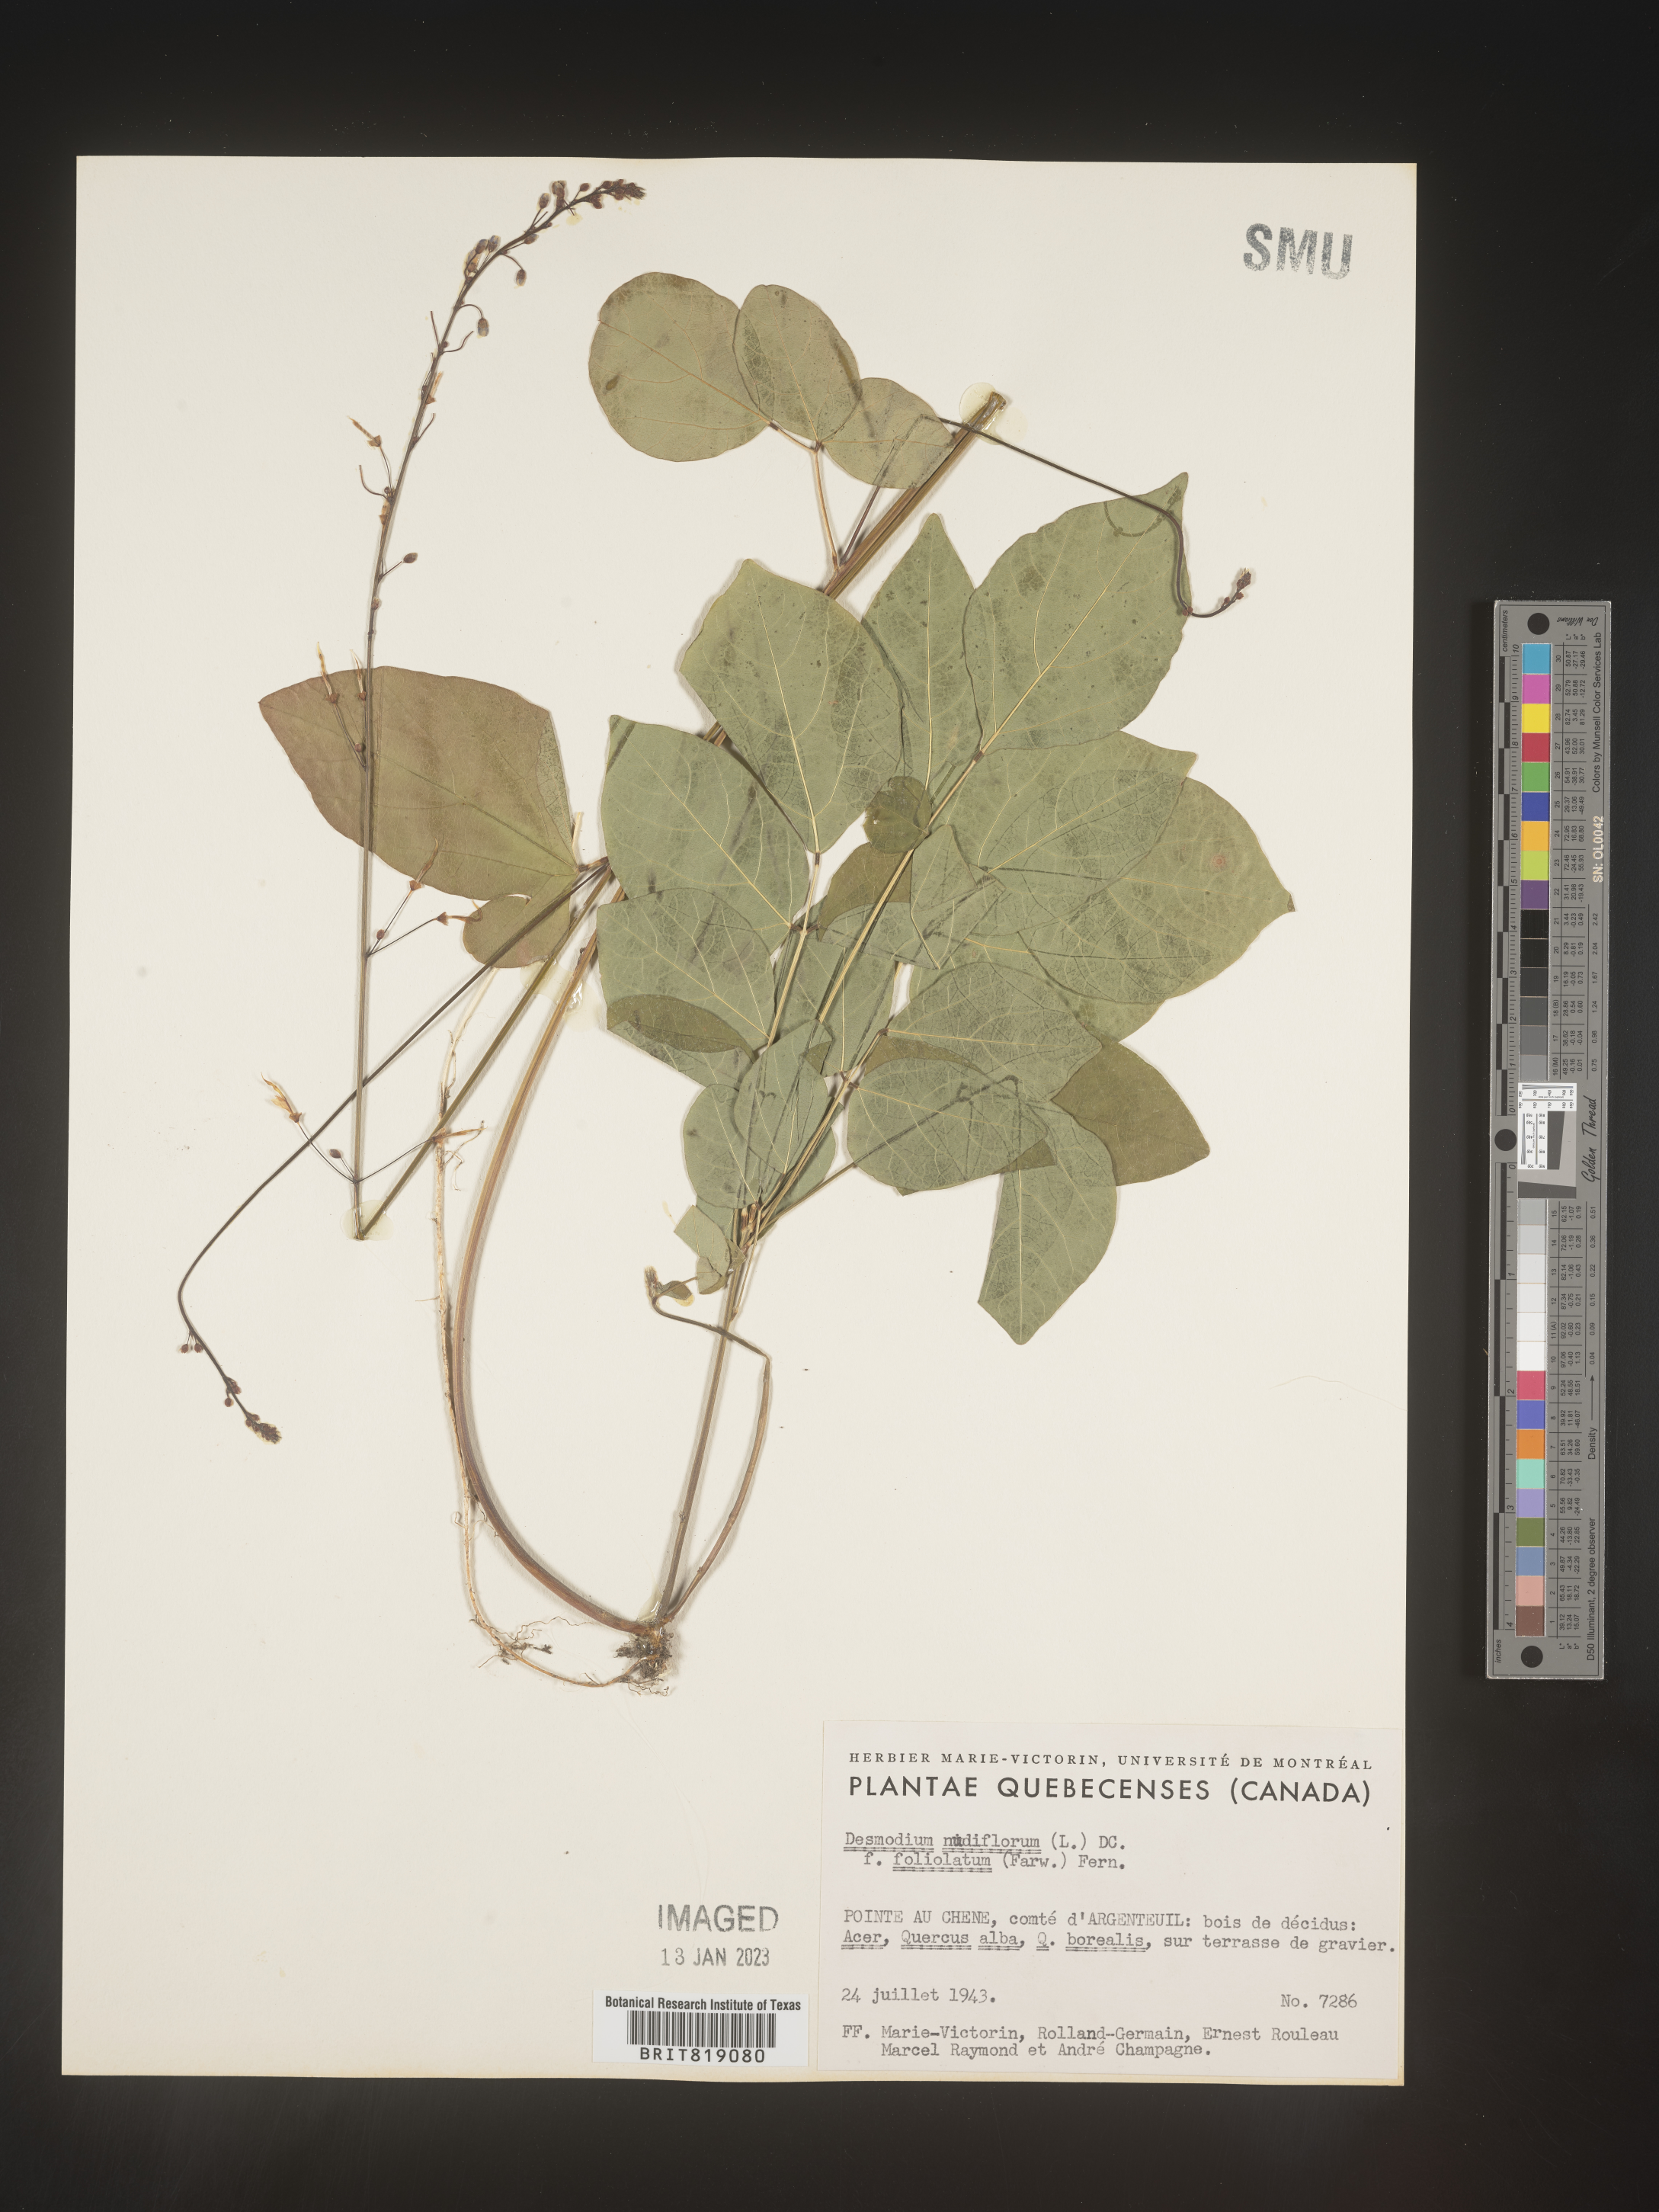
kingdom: Plantae
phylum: Tracheophyta
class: Magnoliopsida
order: Fabales
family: Fabaceae
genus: Hylodesmum
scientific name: Hylodesmum nudiflorum
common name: Bare-stemmed tick-trefoil
